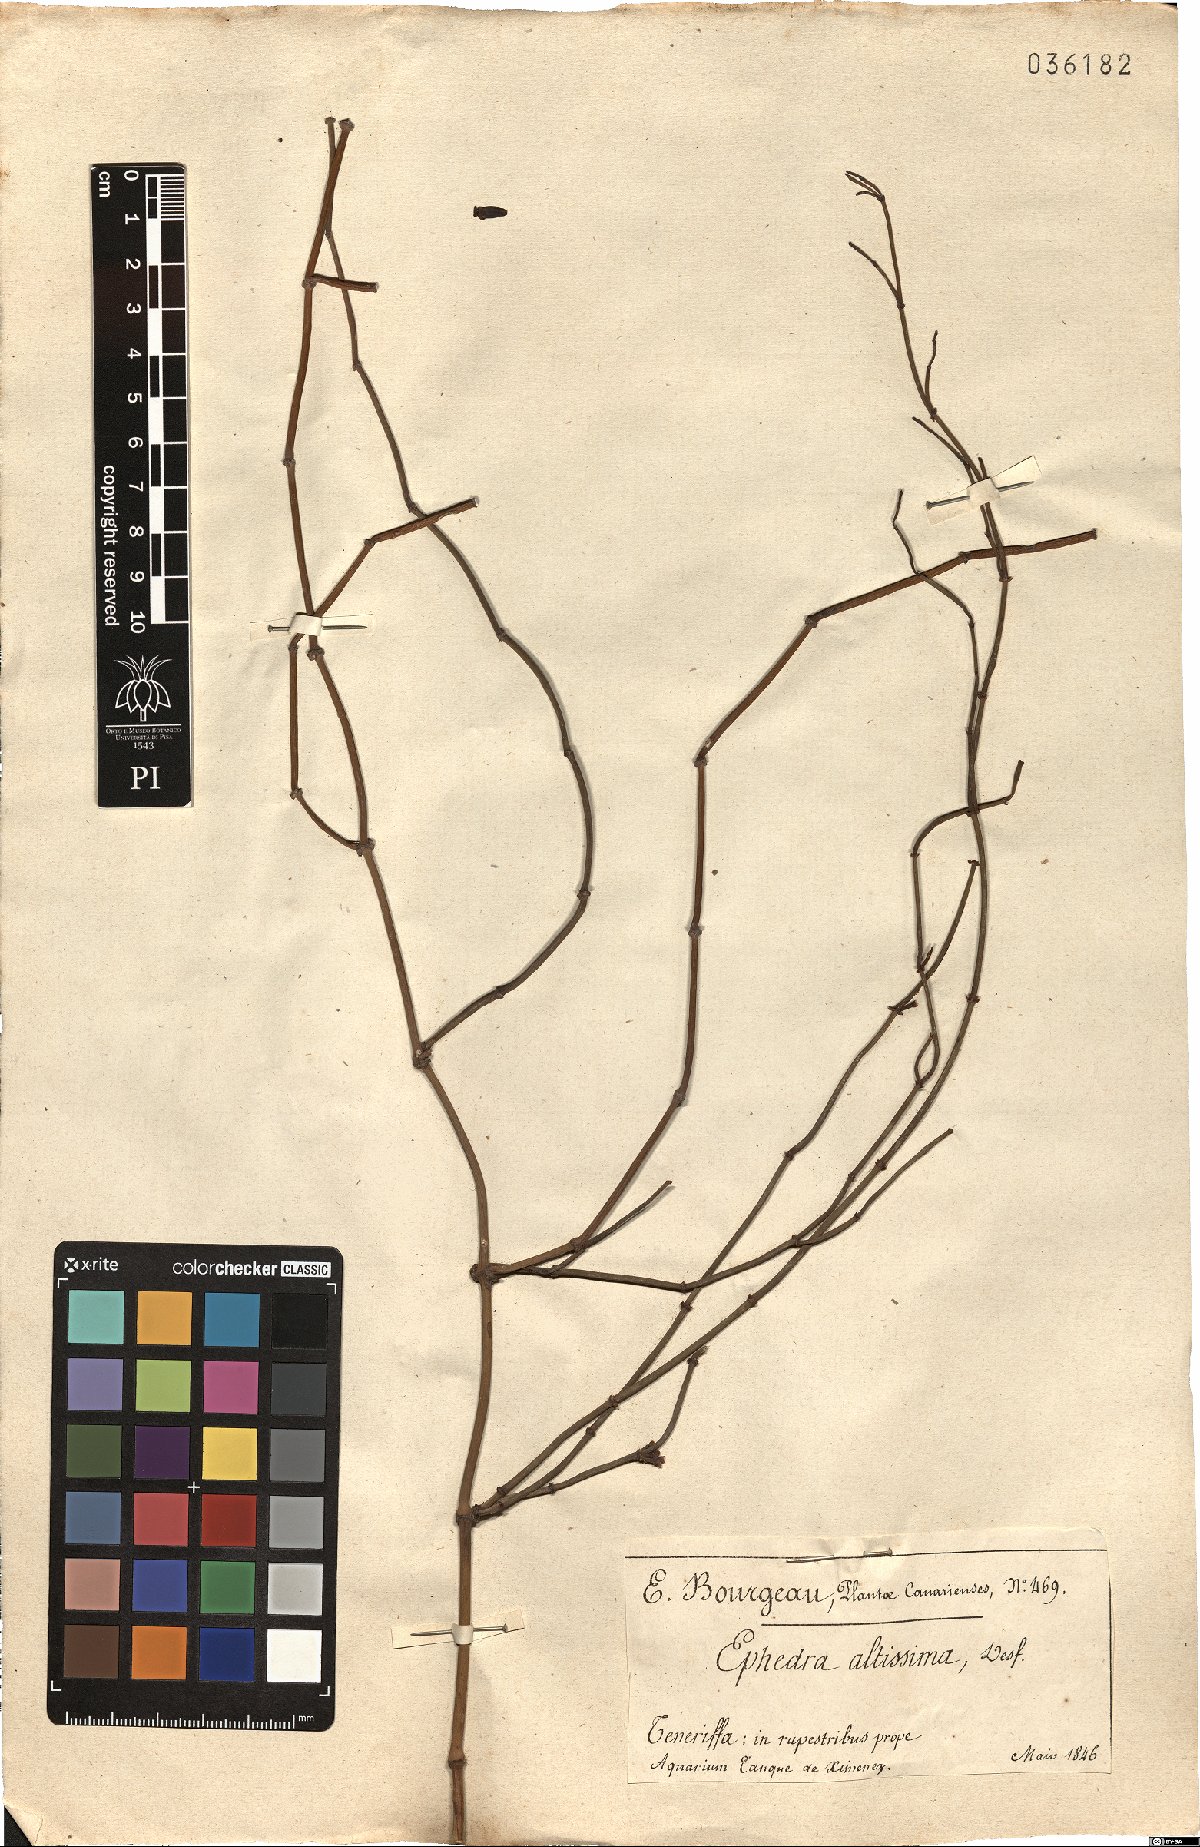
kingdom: Plantae
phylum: Tracheophyta
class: Gnetopsida
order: Ephedrales
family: Ephedraceae
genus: Ephedra
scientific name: Ephedra altissima
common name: High-climbing jointfir
